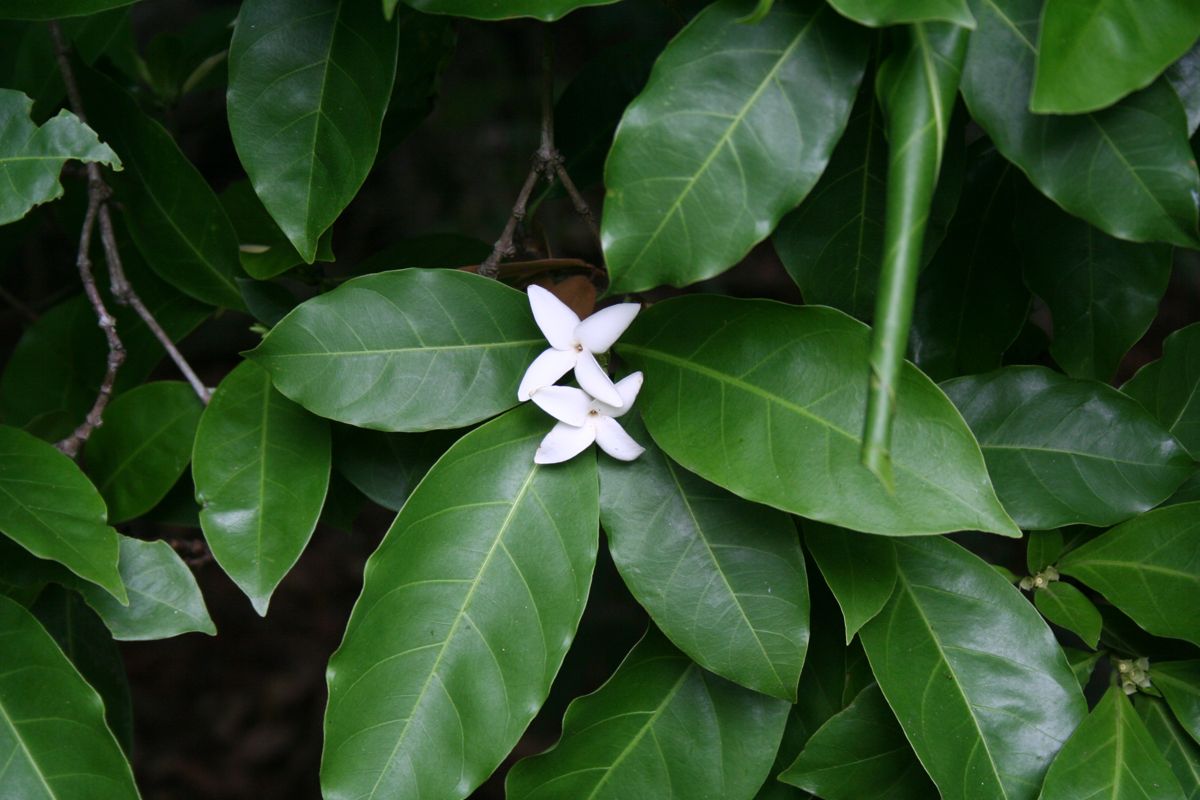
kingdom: Plantae
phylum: Tracheophyta
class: Magnoliopsida
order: Gentianales
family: Rubiaceae
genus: Alibertia
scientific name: Alibertia edulis
